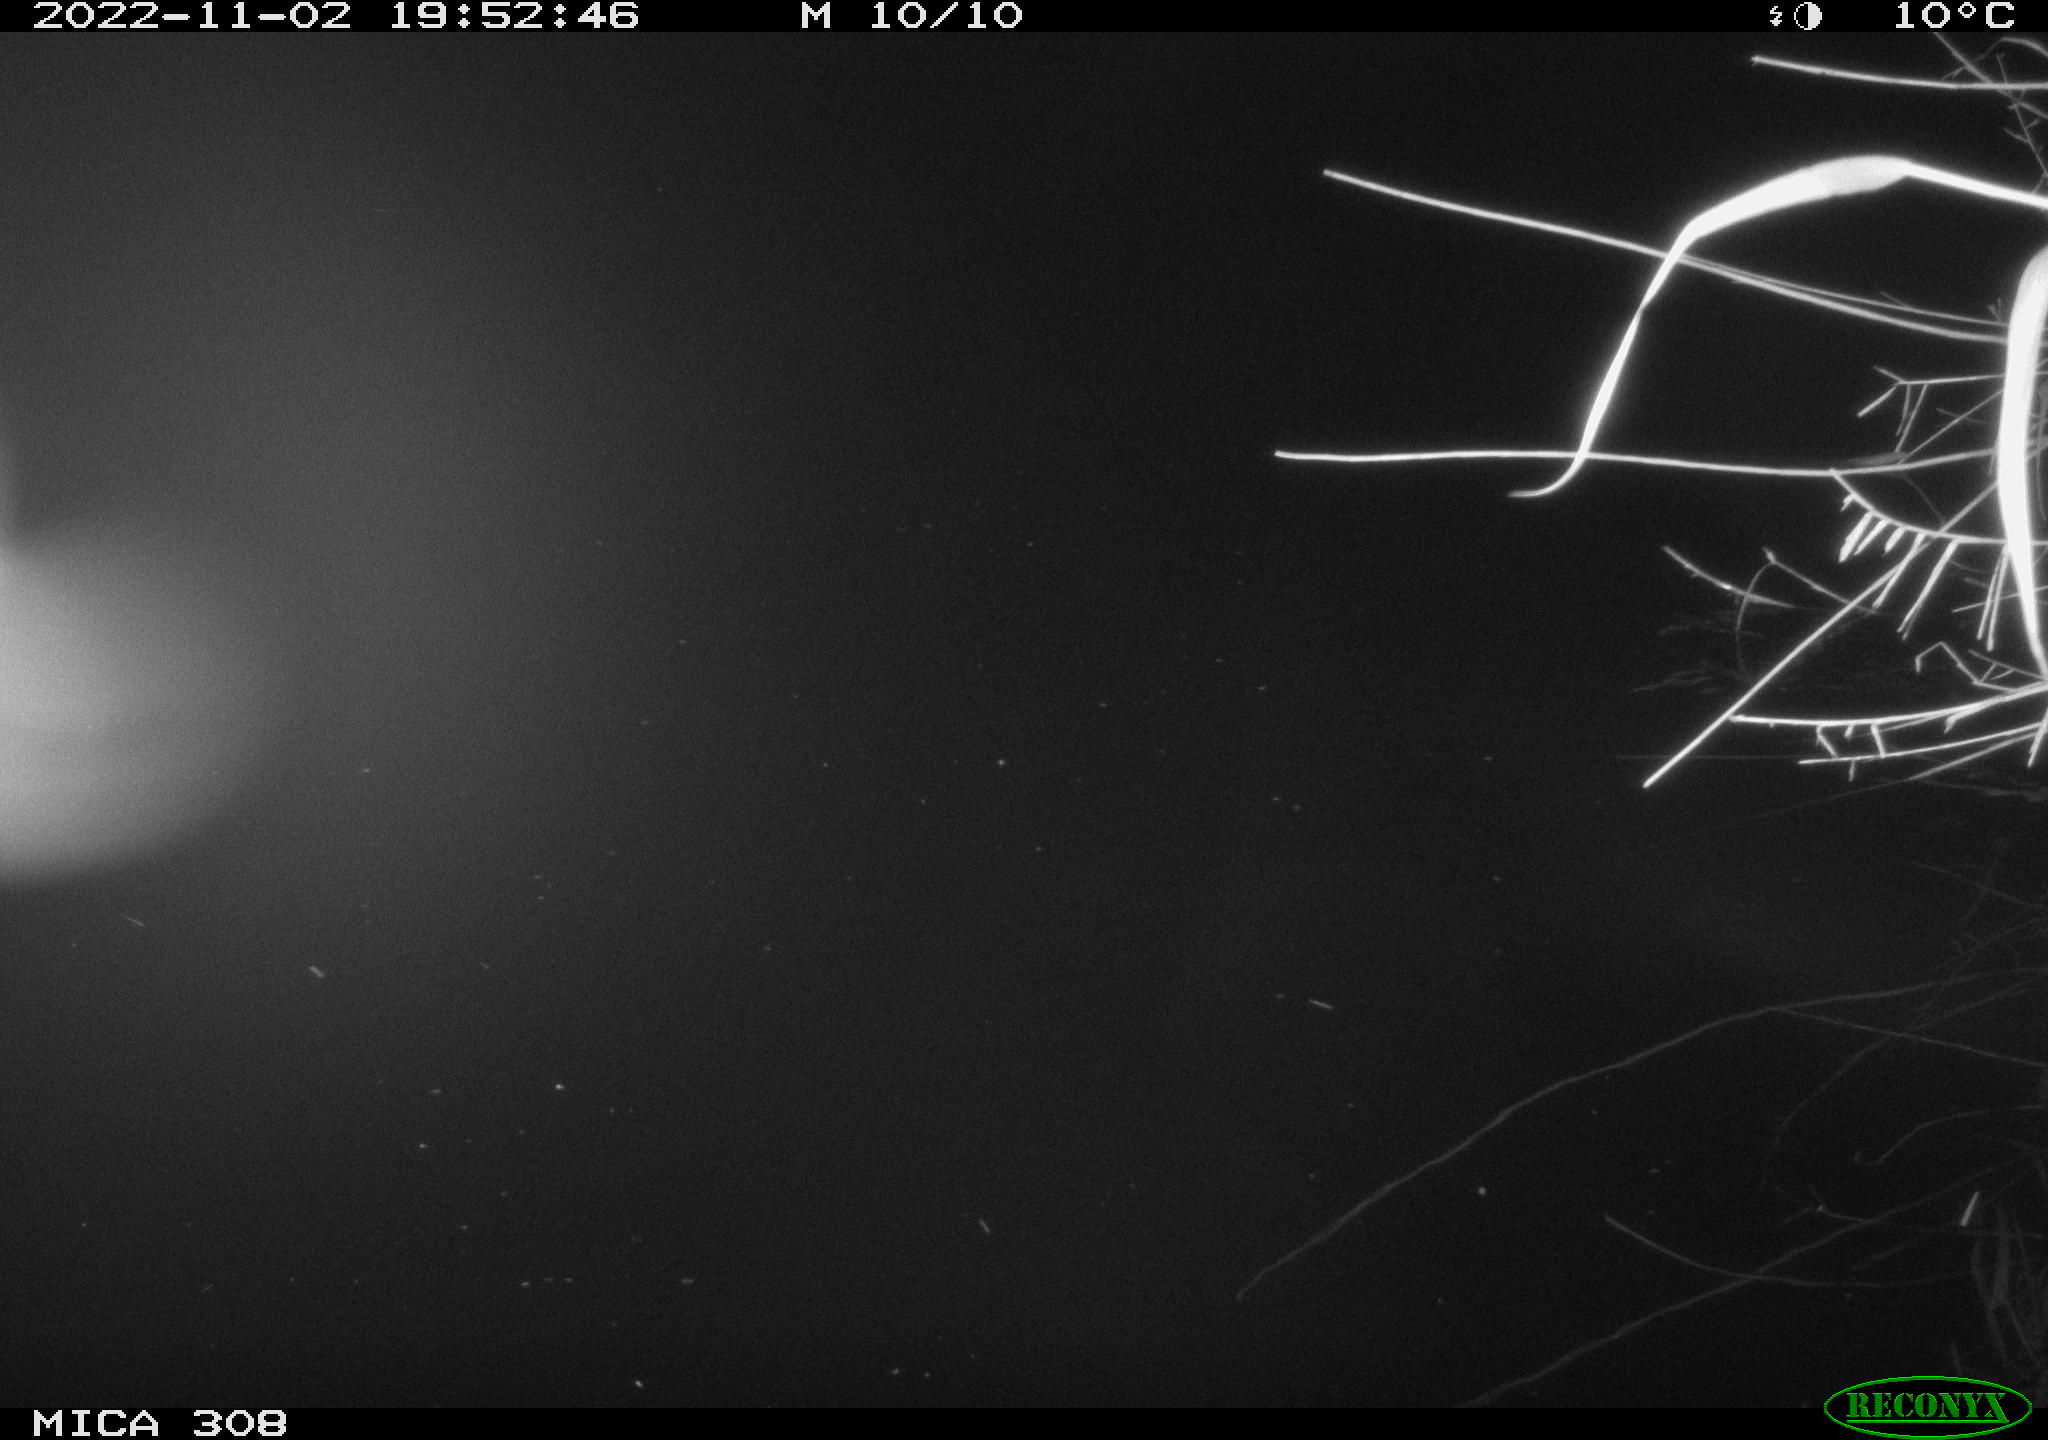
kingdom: Animalia
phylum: Chordata
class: Mammalia
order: Rodentia
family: Muridae
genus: Rattus
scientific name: Rattus norvegicus
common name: Brown rat
